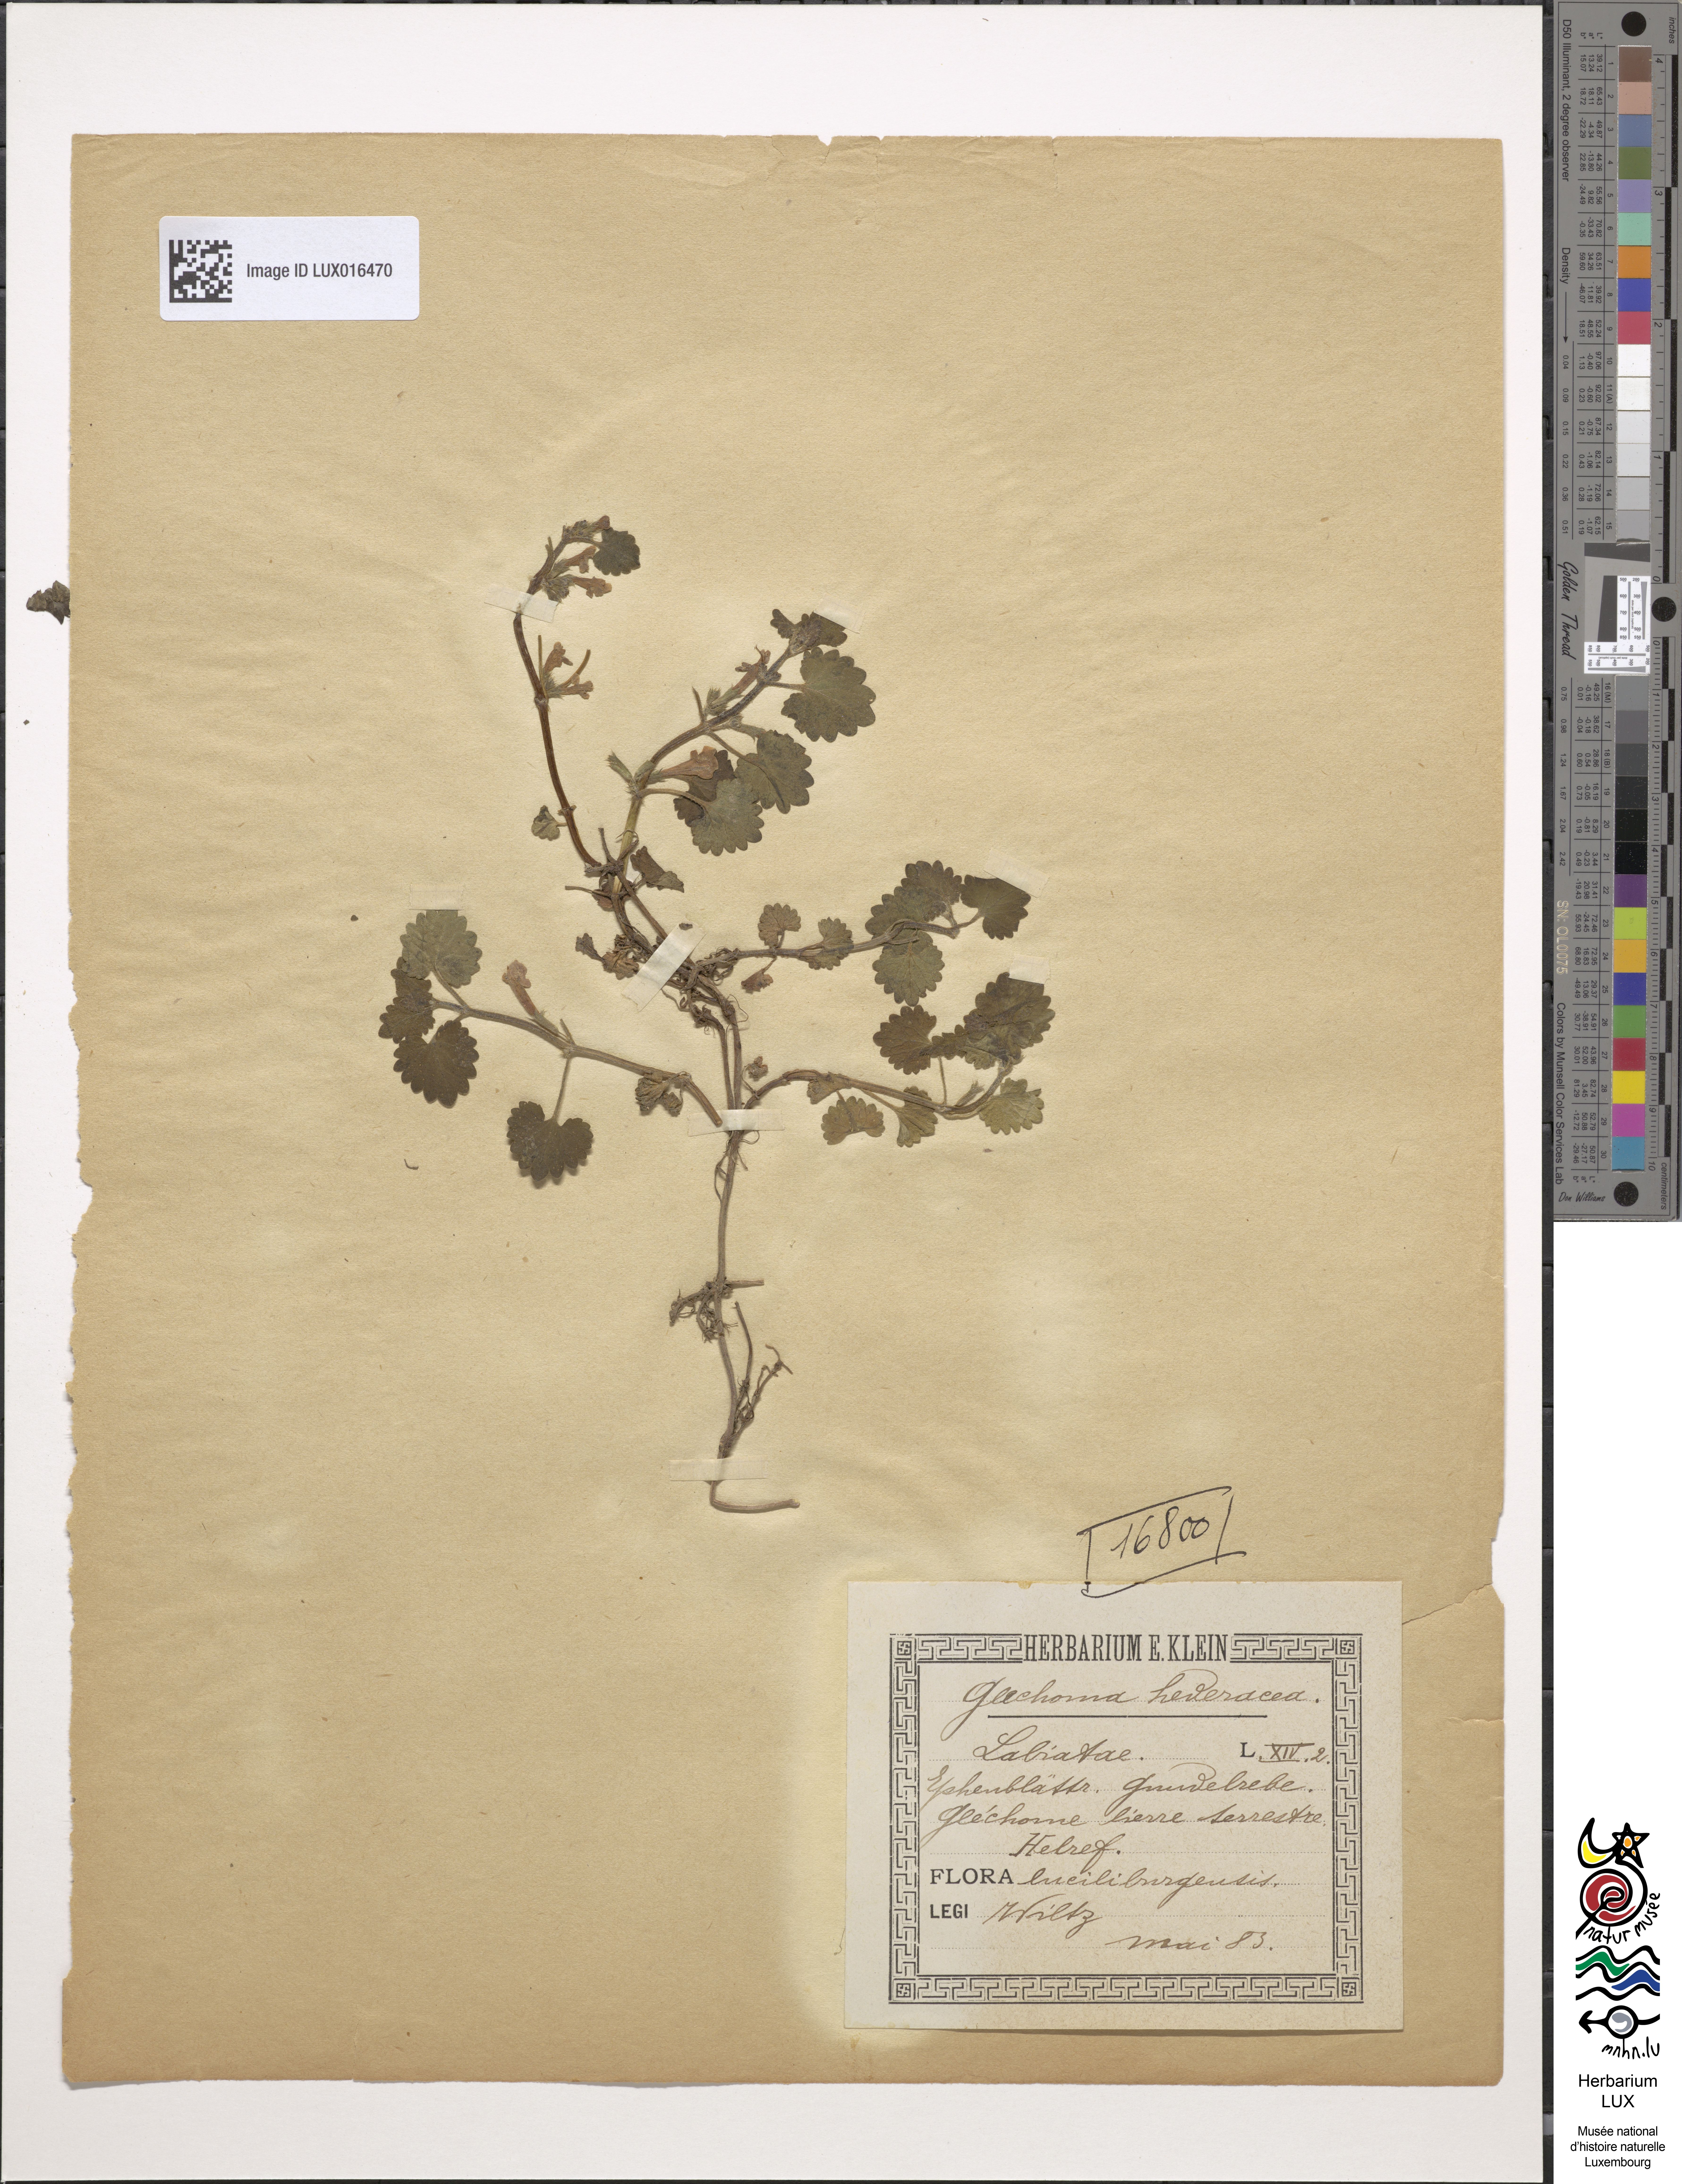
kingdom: Plantae
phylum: Tracheophyta
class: Magnoliopsida
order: Lamiales
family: Lamiaceae
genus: Glechoma
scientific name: Glechoma hederacea
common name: Ground ivy
